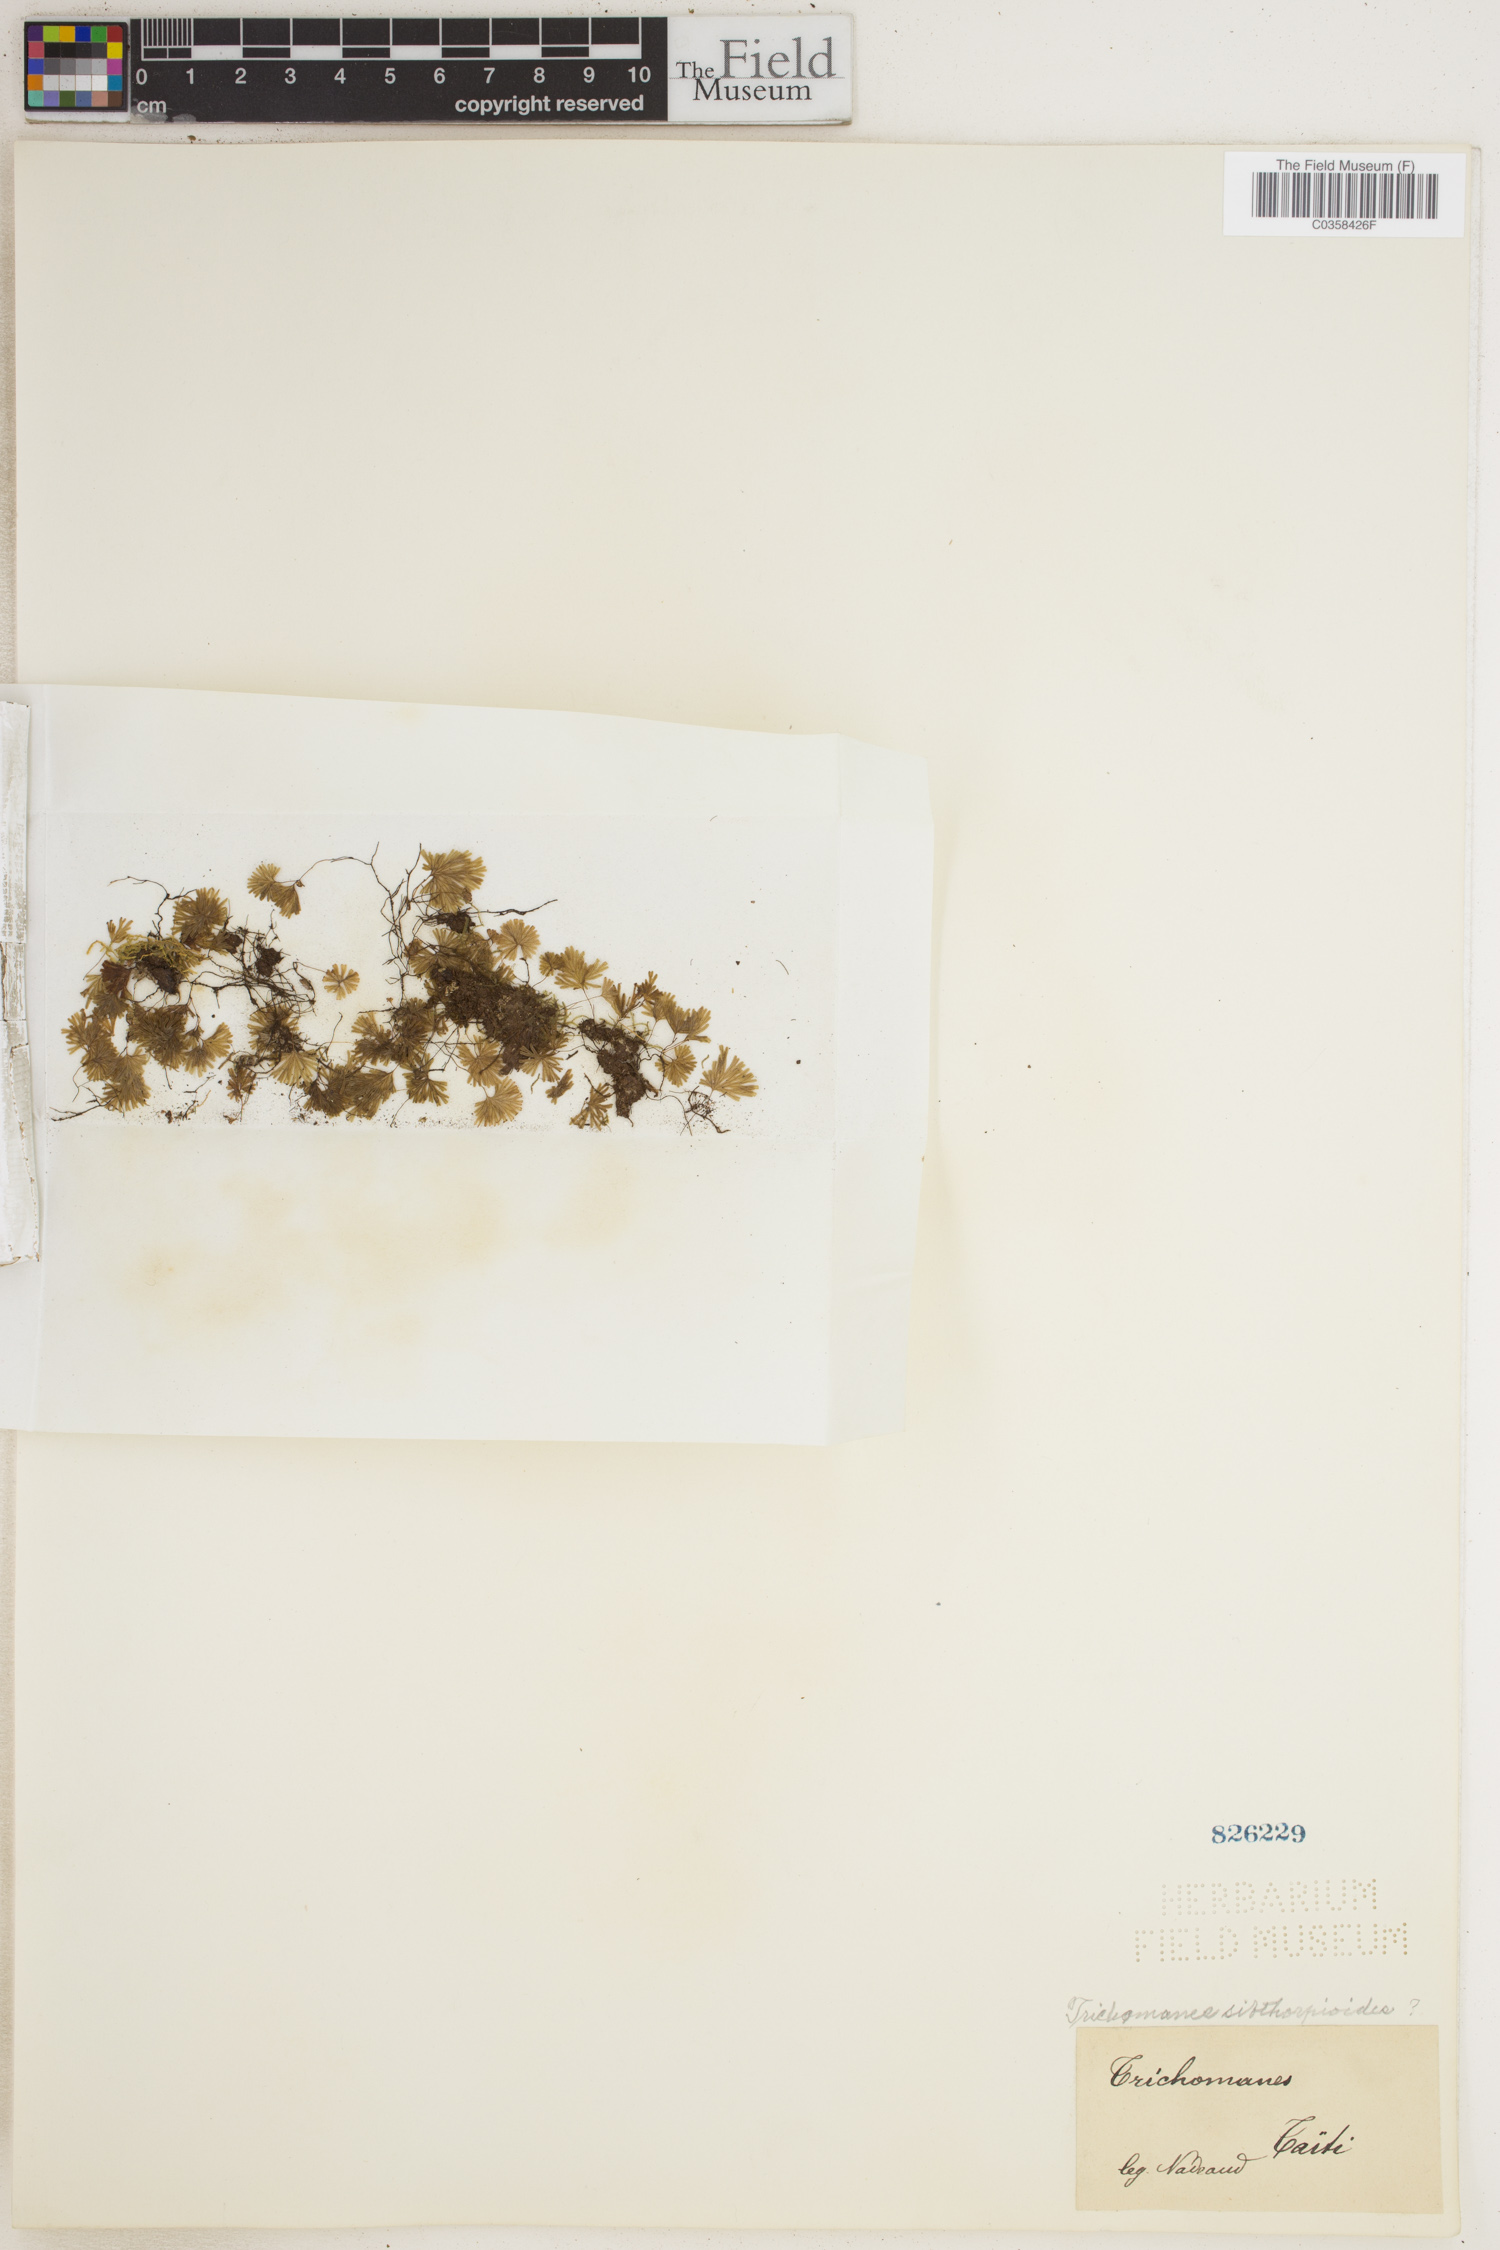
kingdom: Plantae
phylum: Tracheophyta
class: Polypodiopsida
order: Hymenophyllales
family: Hymenophyllaceae
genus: Hymenophyllum
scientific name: Hymenophyllum sibthorpioides
